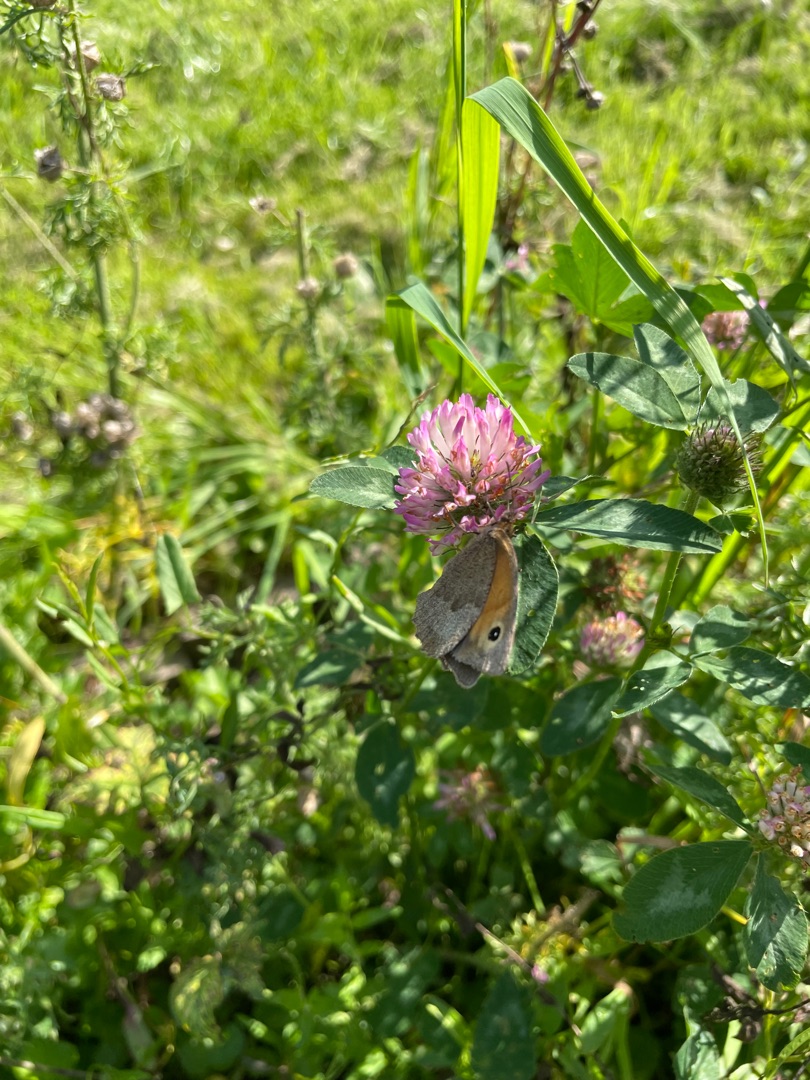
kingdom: Animalia
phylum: Arthropoda
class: Insecta
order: Lepidoptera
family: Nymphalidae
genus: Maniola
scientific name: Maniola jurtina
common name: Græsrandøje
